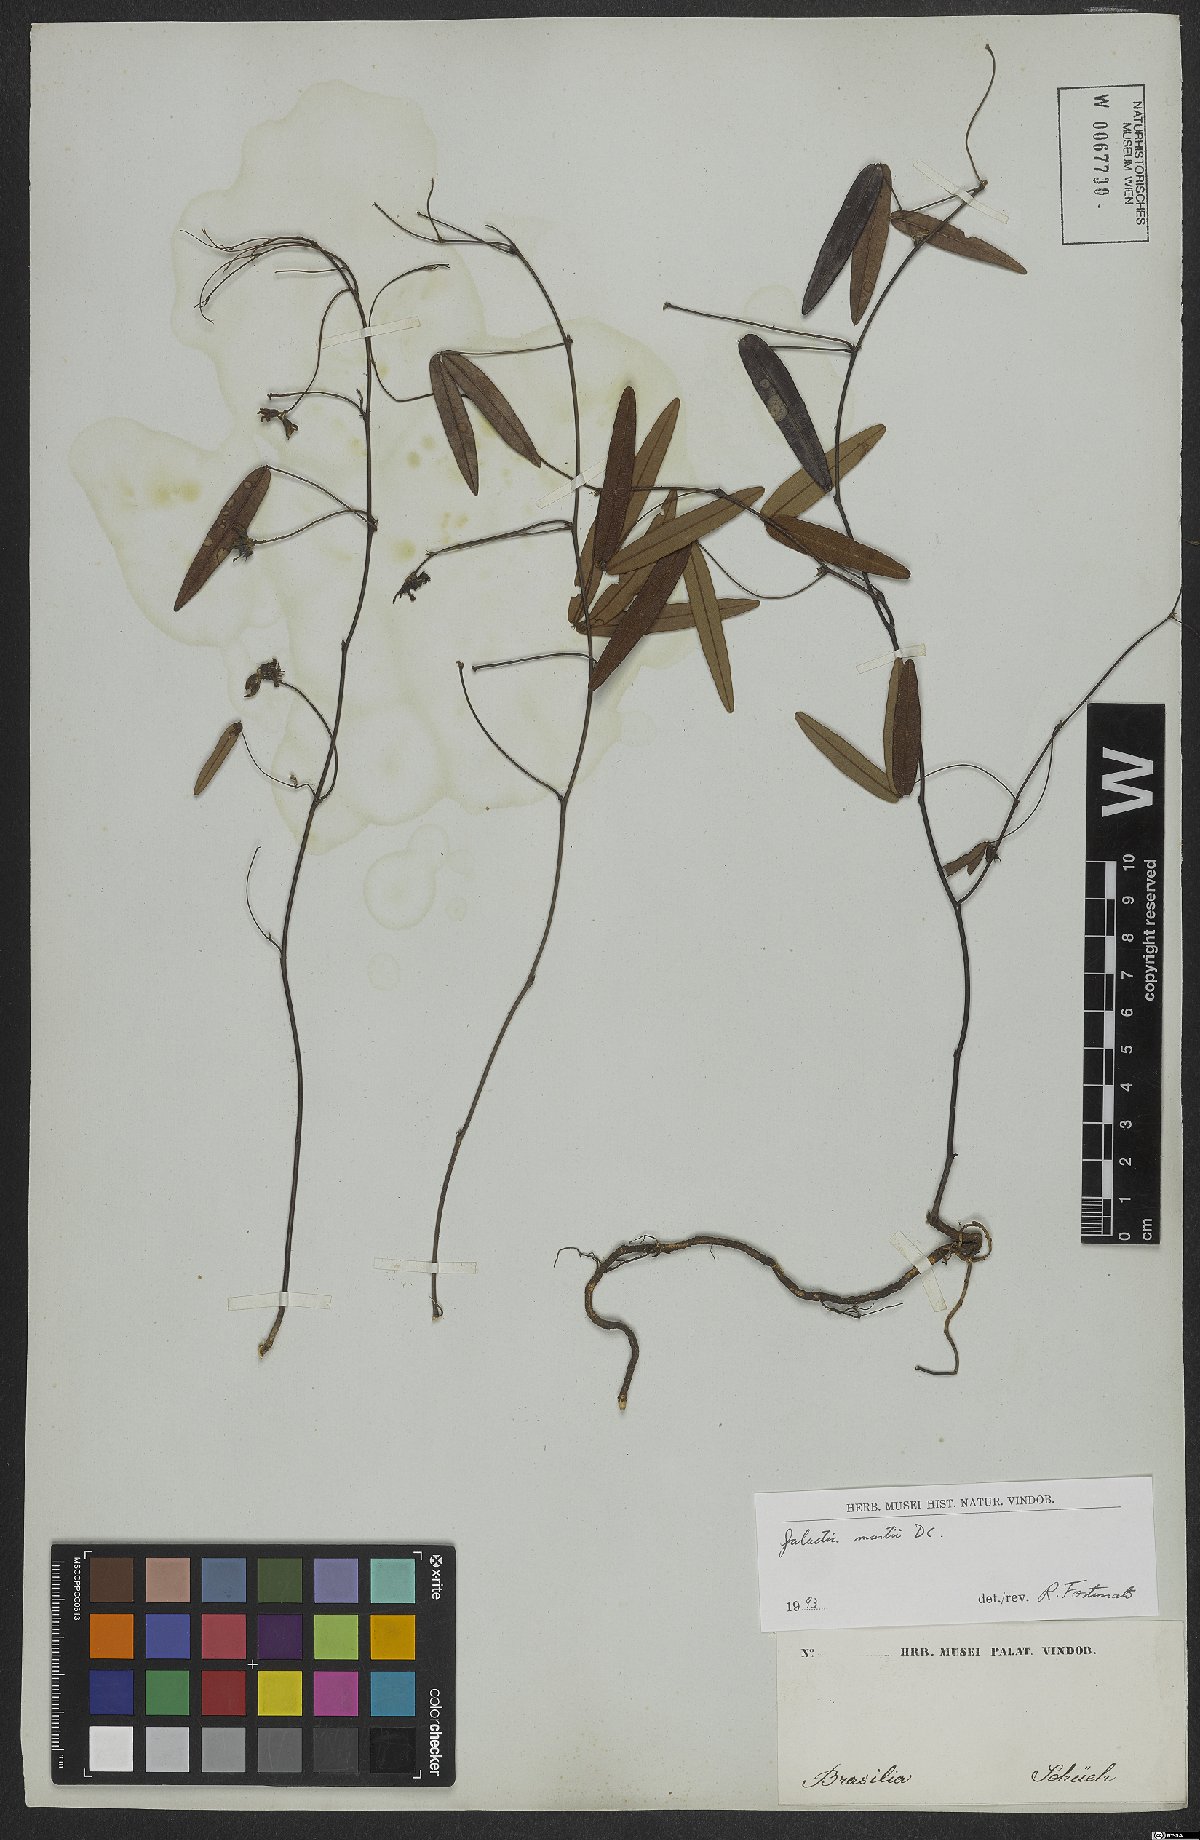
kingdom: Plantae
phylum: Tracheophyta
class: Magnoliopsida
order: Fabales
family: Fabaceae
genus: Betencourtia
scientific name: Betencourtia martii
